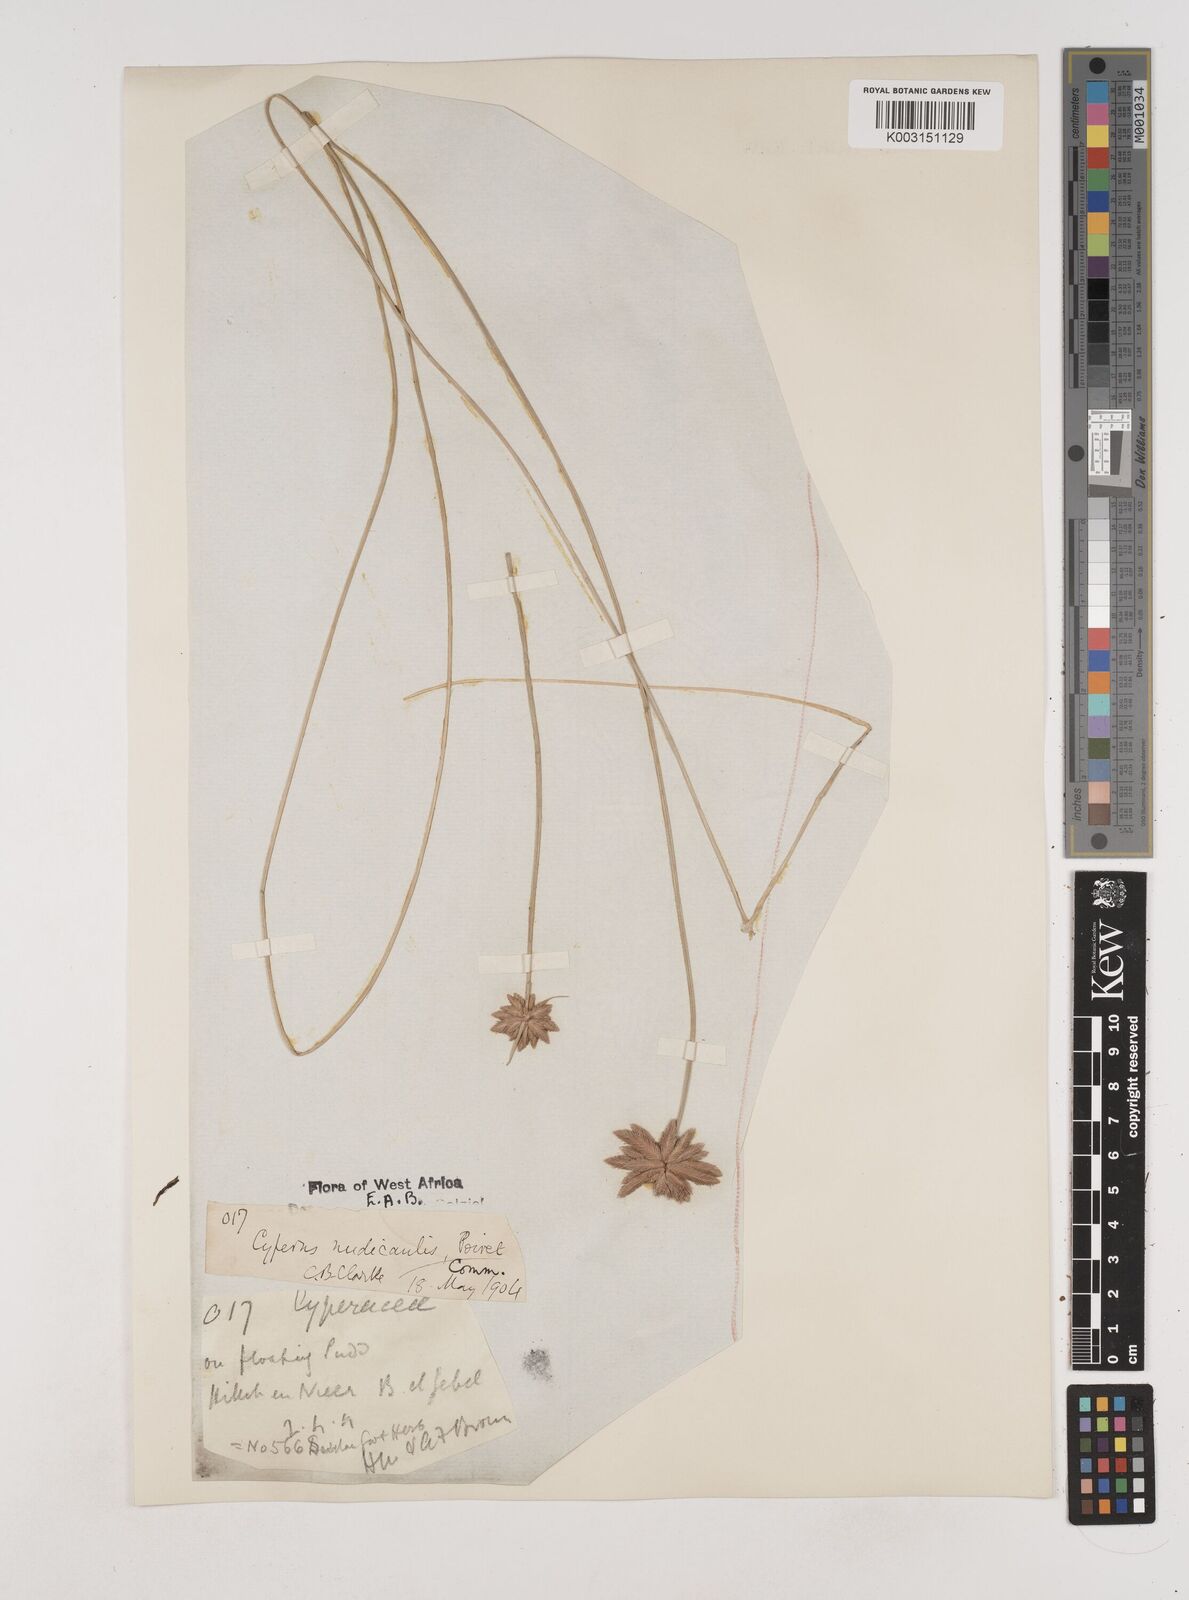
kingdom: Plantae
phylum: Tracheophyta
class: Liliopsida
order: Poales
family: Cyperaceae
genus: Cyperus
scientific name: Cyperus pectinatus
